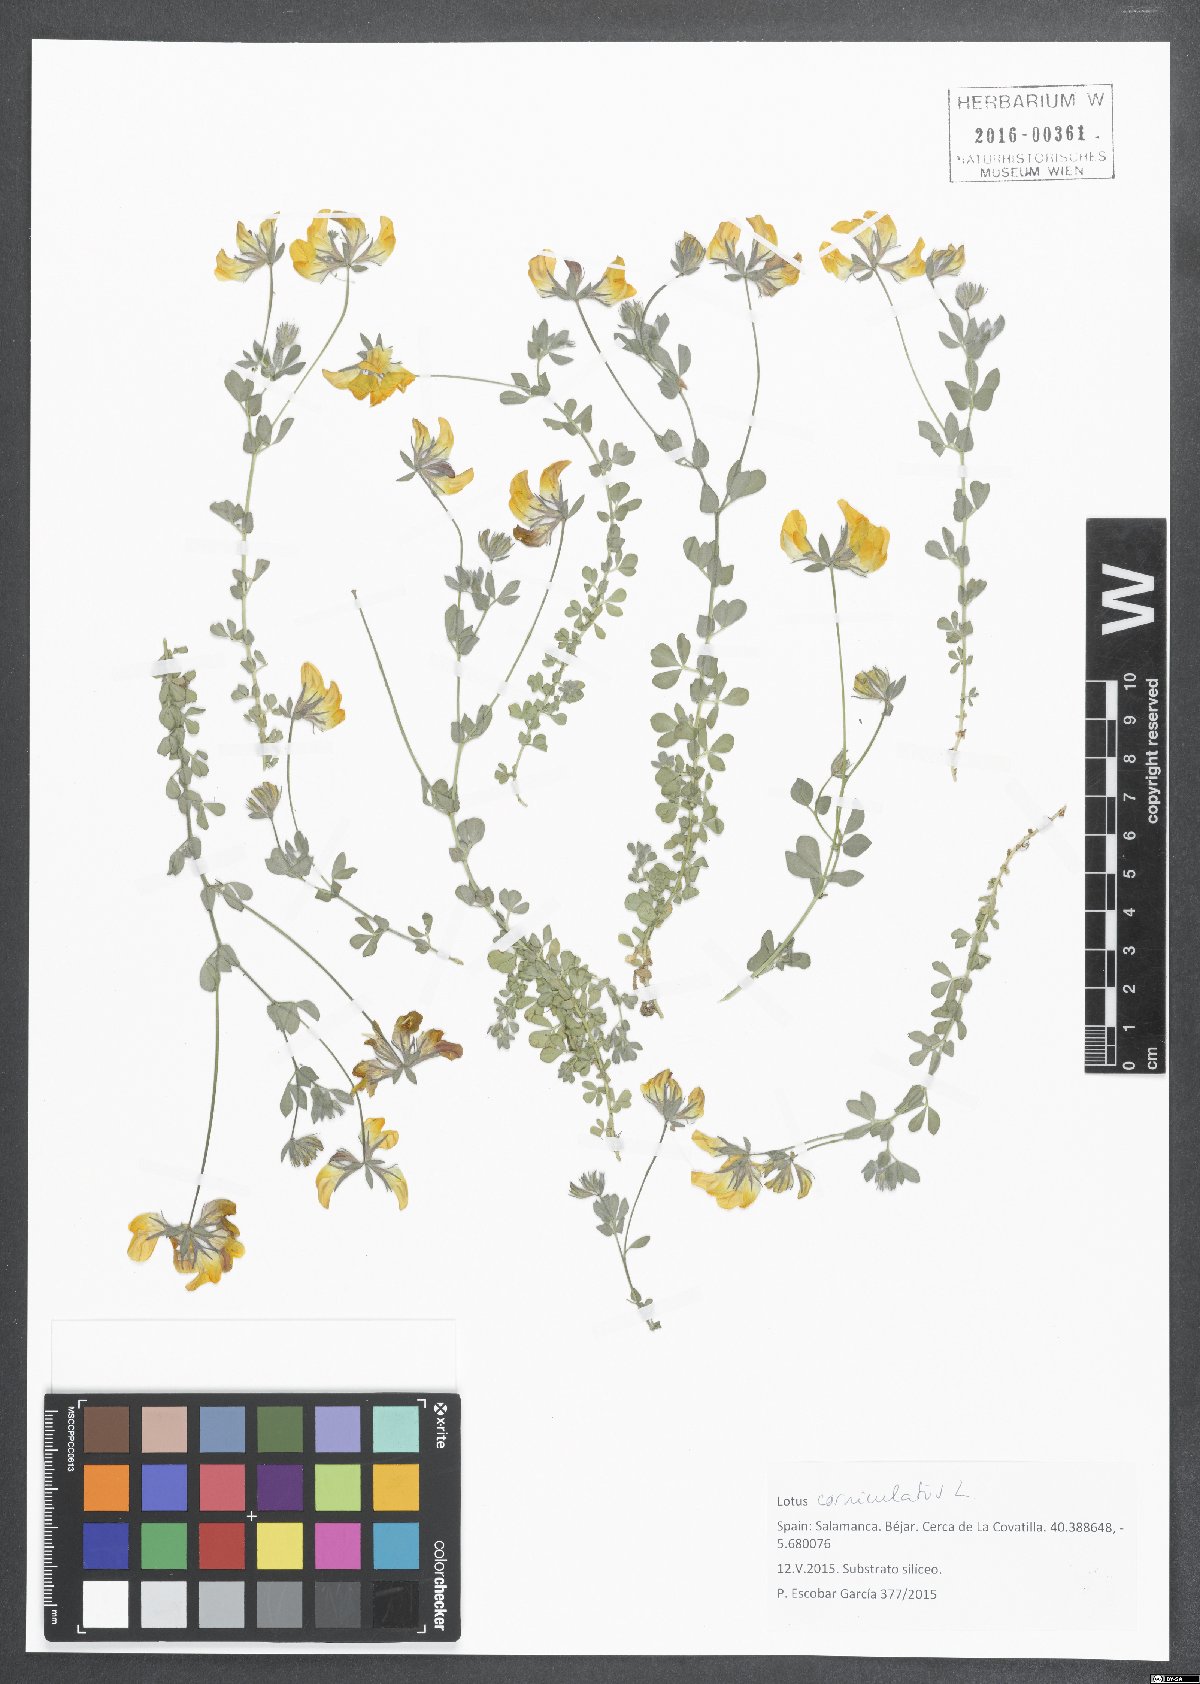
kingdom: Plantae
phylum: Tracheophyta
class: Magnoliopsida
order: Fabales
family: Fabaceae
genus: Lotus
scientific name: Lotus corniculatus
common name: Common bird's-foot-trefoil
